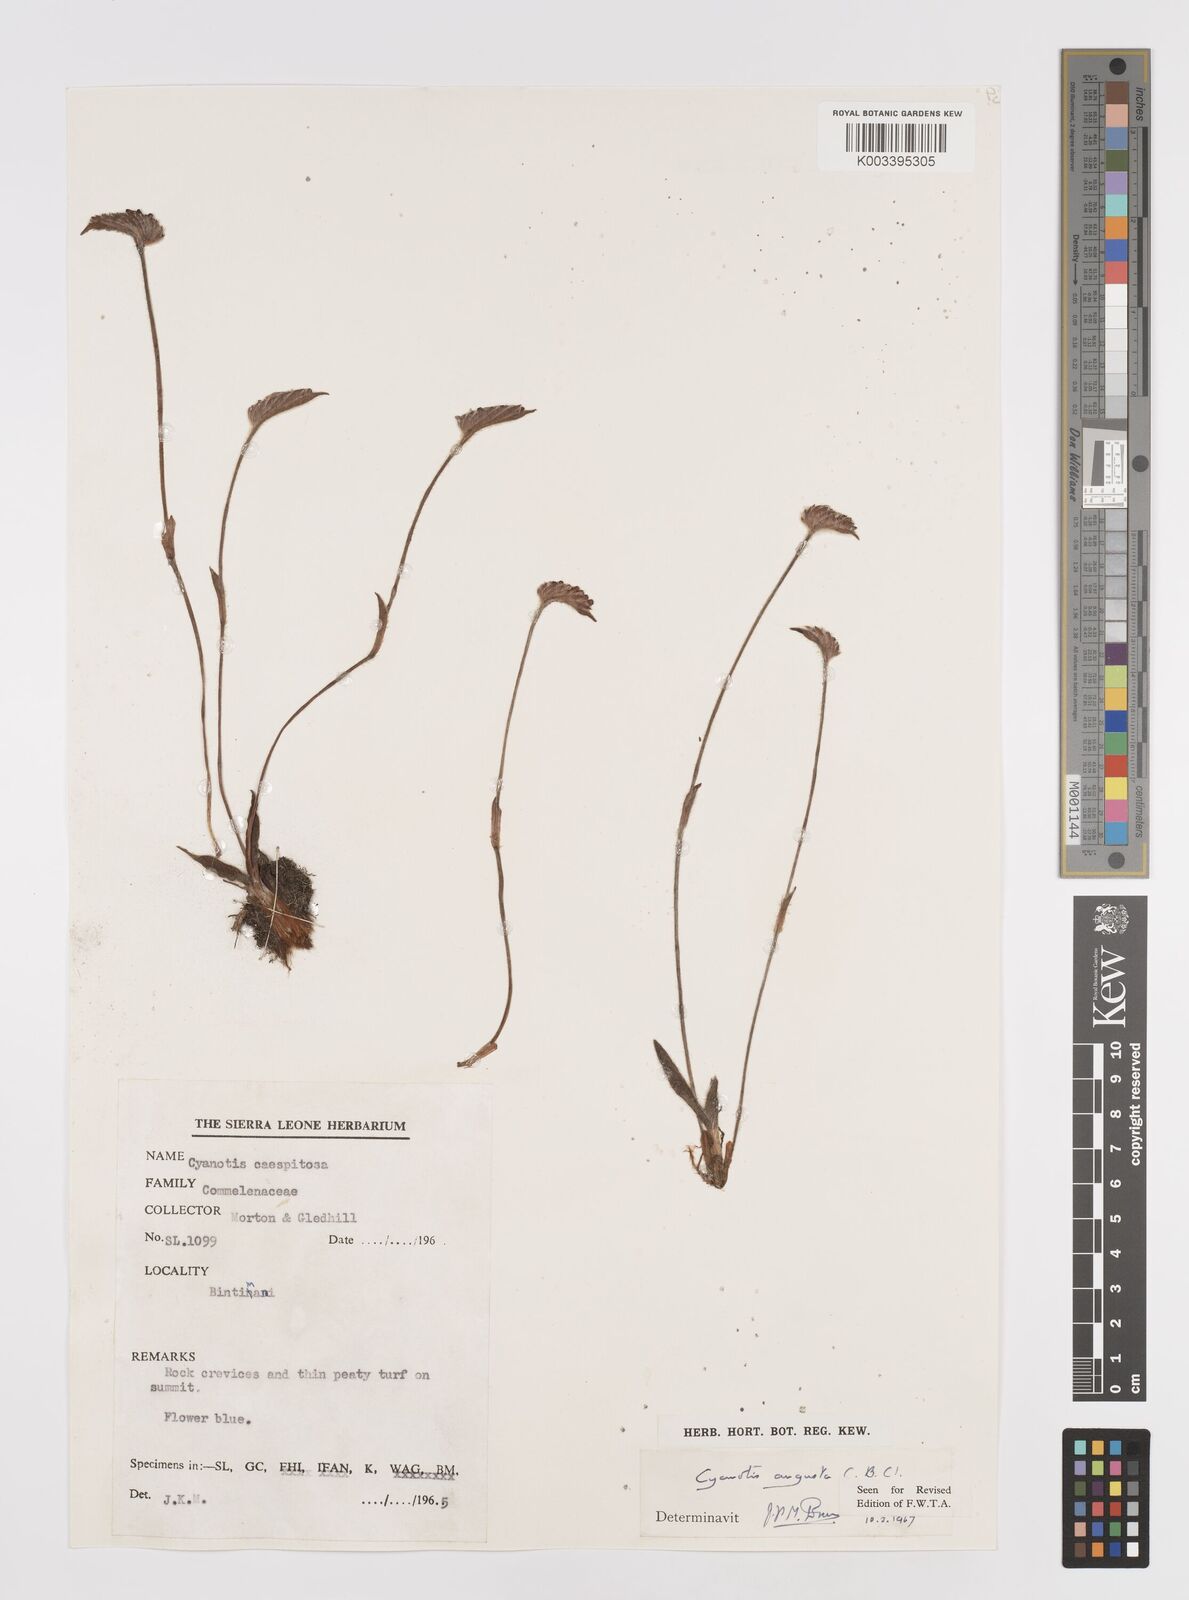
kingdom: Plantae
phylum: Tracheophyta
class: Liliopsida
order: Commelinales
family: Commelinaceae
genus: Cyanotis
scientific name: Cyanotis angusta
